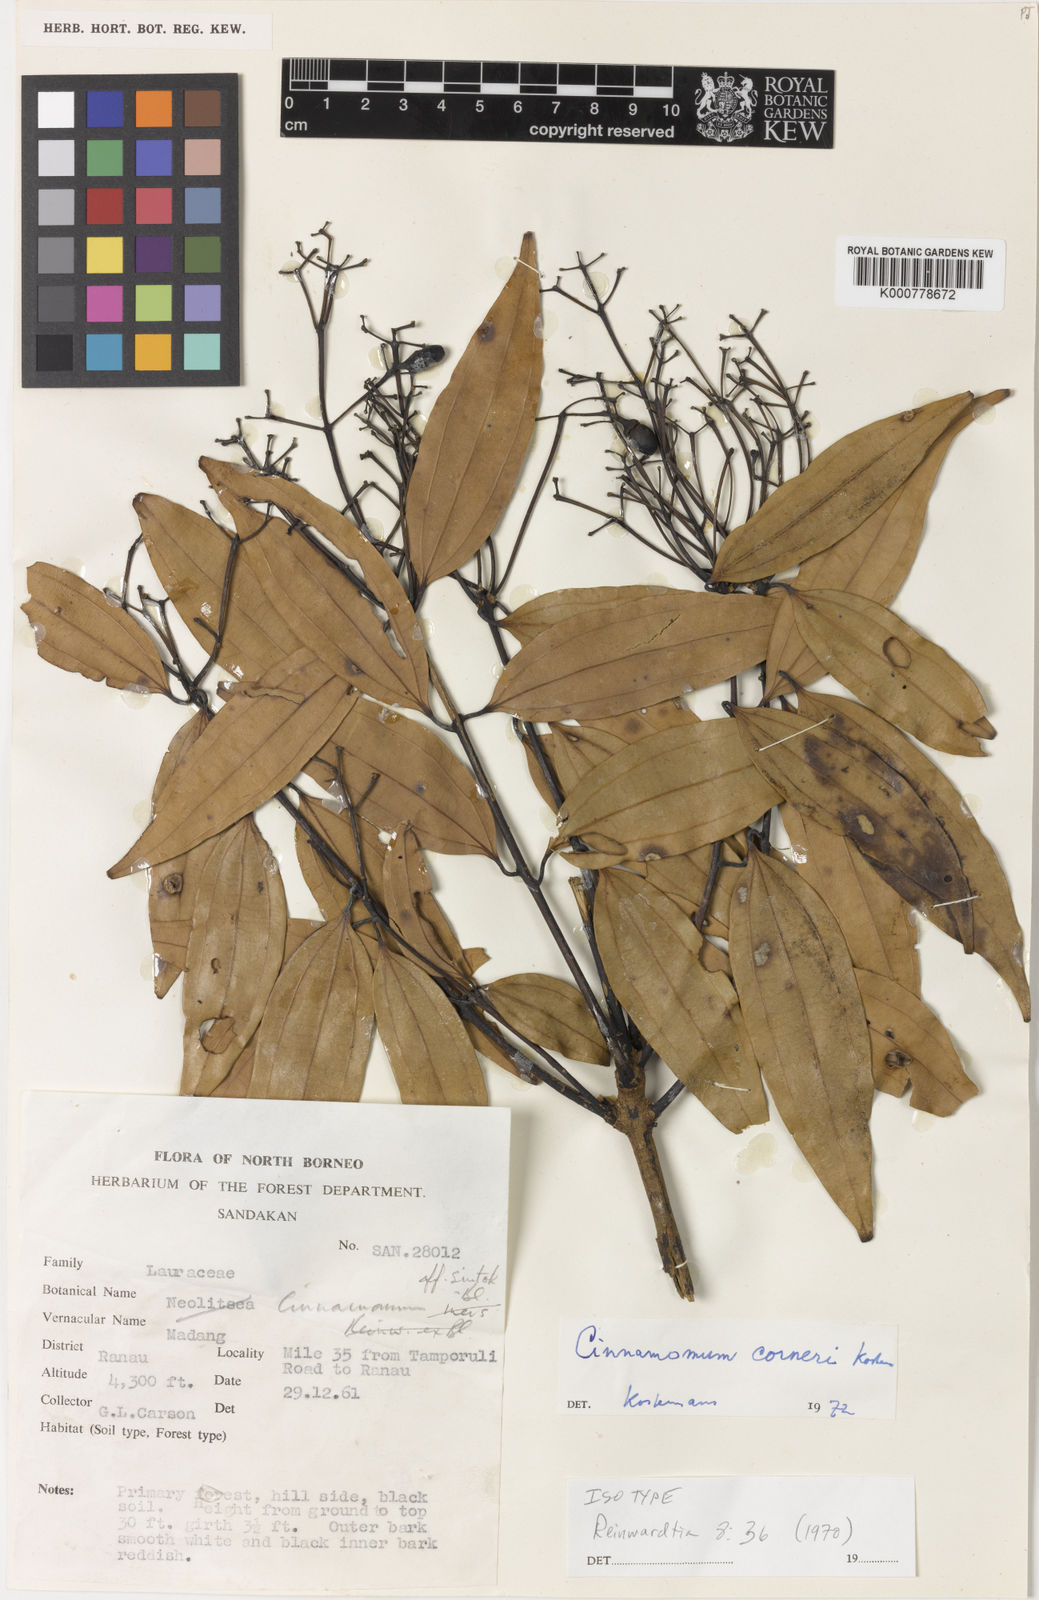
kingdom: Plantae
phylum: Tracheophyta
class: Magnoliopsida
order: Laurales
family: Lauraceae
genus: Cinnamomum
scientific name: Cinnamomum corneri
